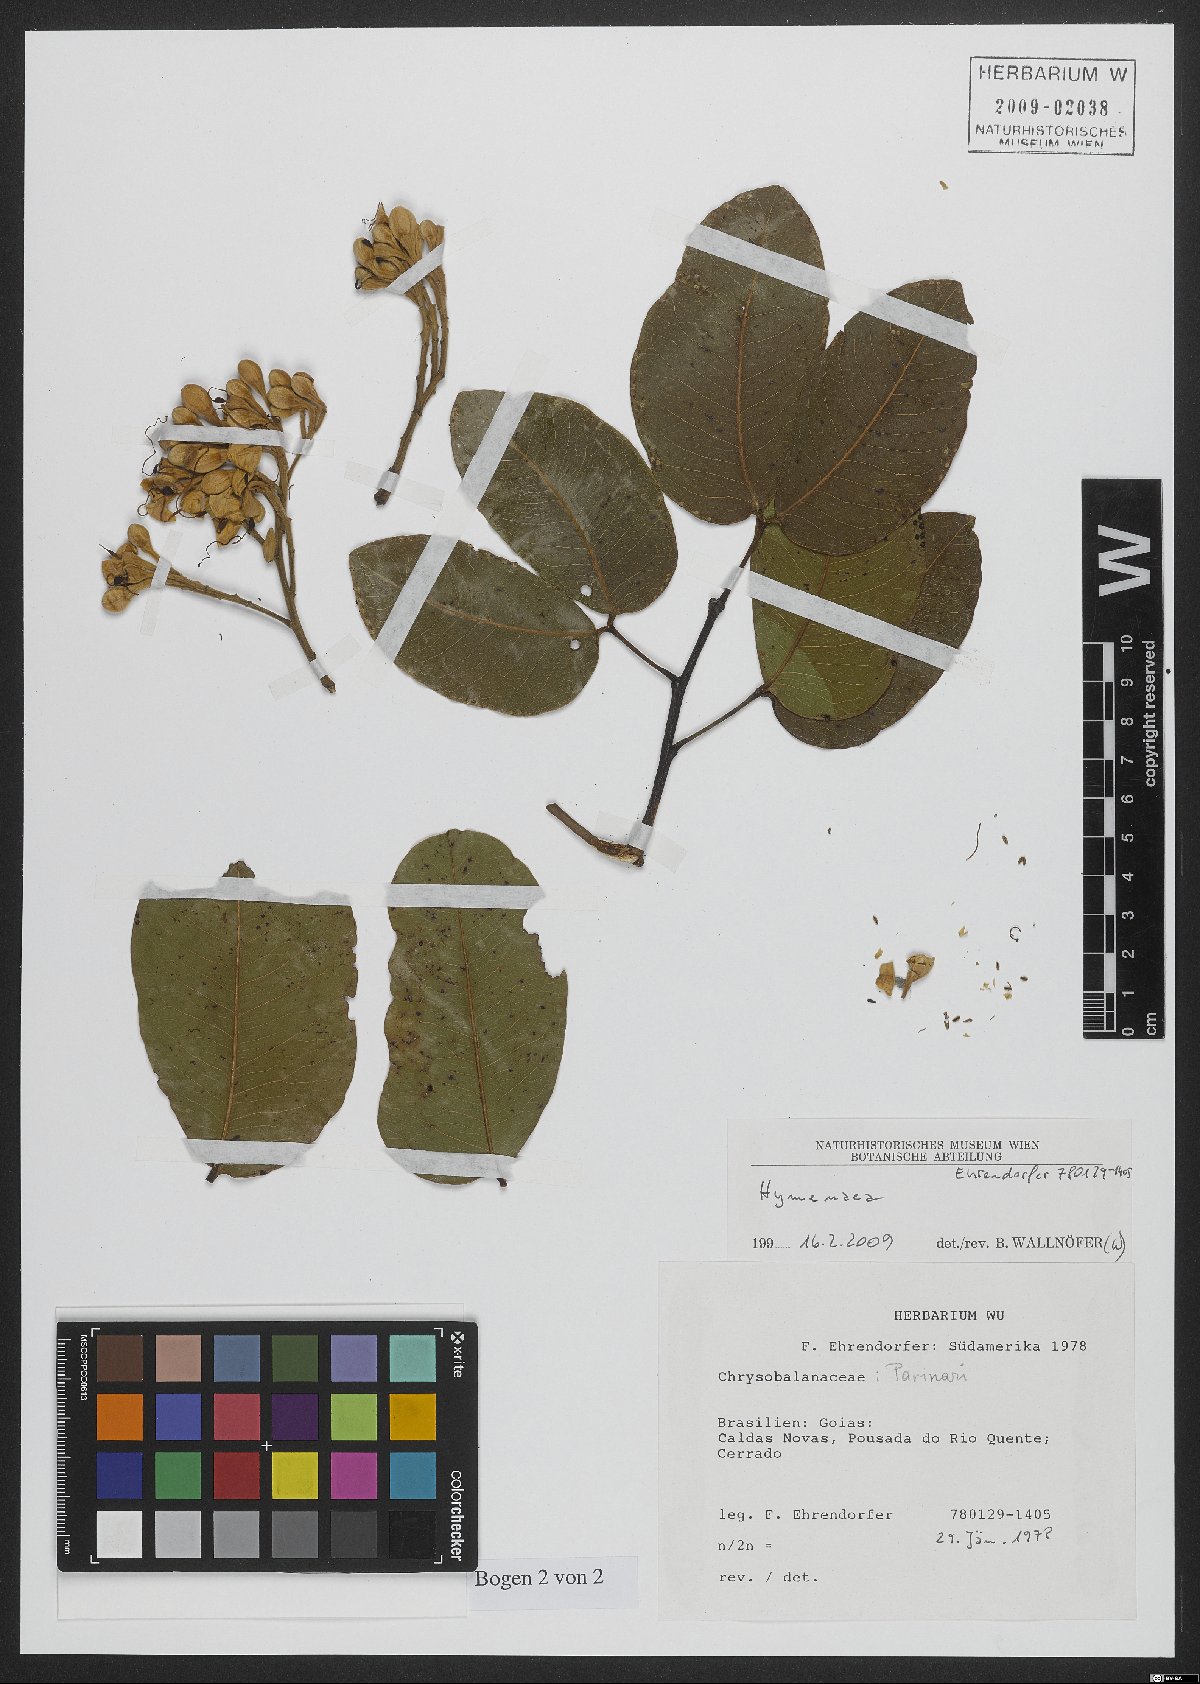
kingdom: Plantae
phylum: Tracheophyta
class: Magnoliopsida
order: Fabales
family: Fabaceae
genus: Hymenaea
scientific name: Hymenaea
